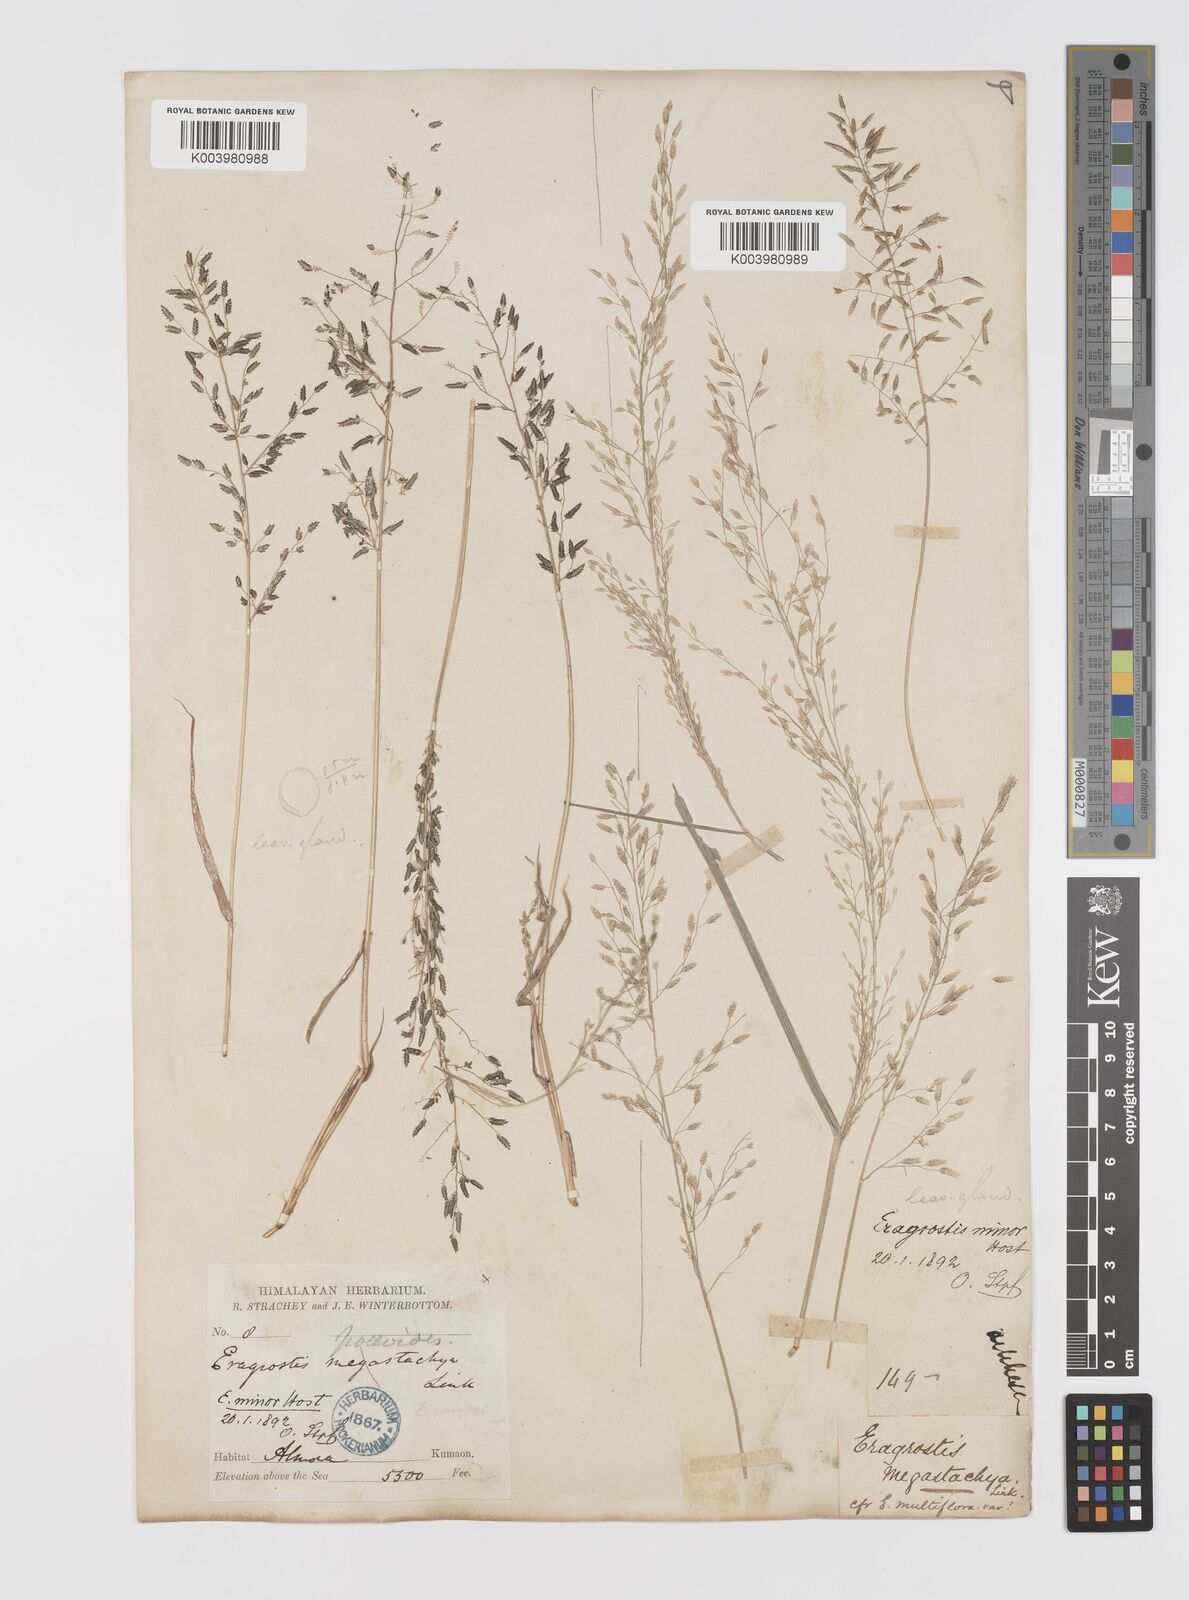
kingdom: Plantae
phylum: Tracheophyta
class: Liliopsida
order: Poales
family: Poaceae
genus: Eragrostis
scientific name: Eragrostis minor
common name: Small love-grass
